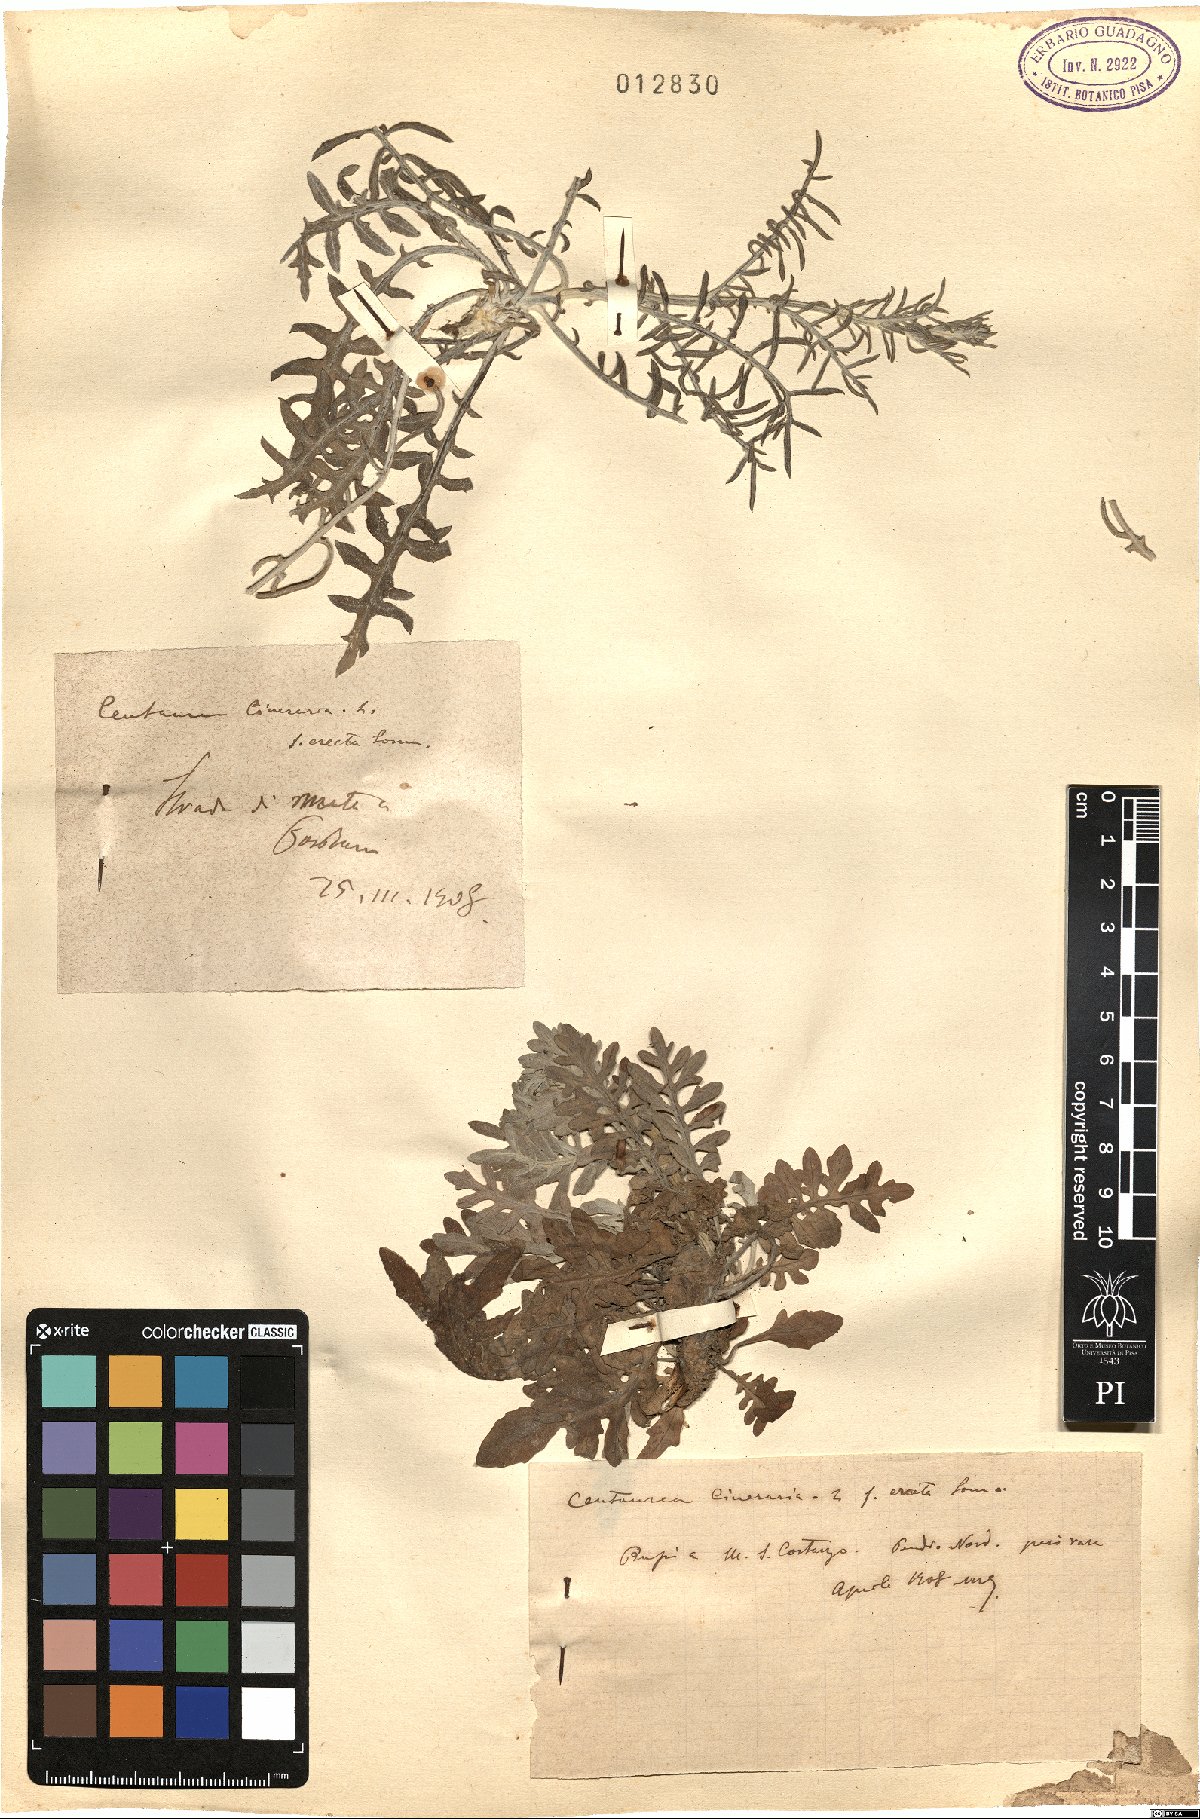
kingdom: Plantae
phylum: Tracheophyta
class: Magnoliopsida
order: Asterales
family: Asteraceae
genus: Centaurea
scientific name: Centaurea cineraria
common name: Dusty miller
